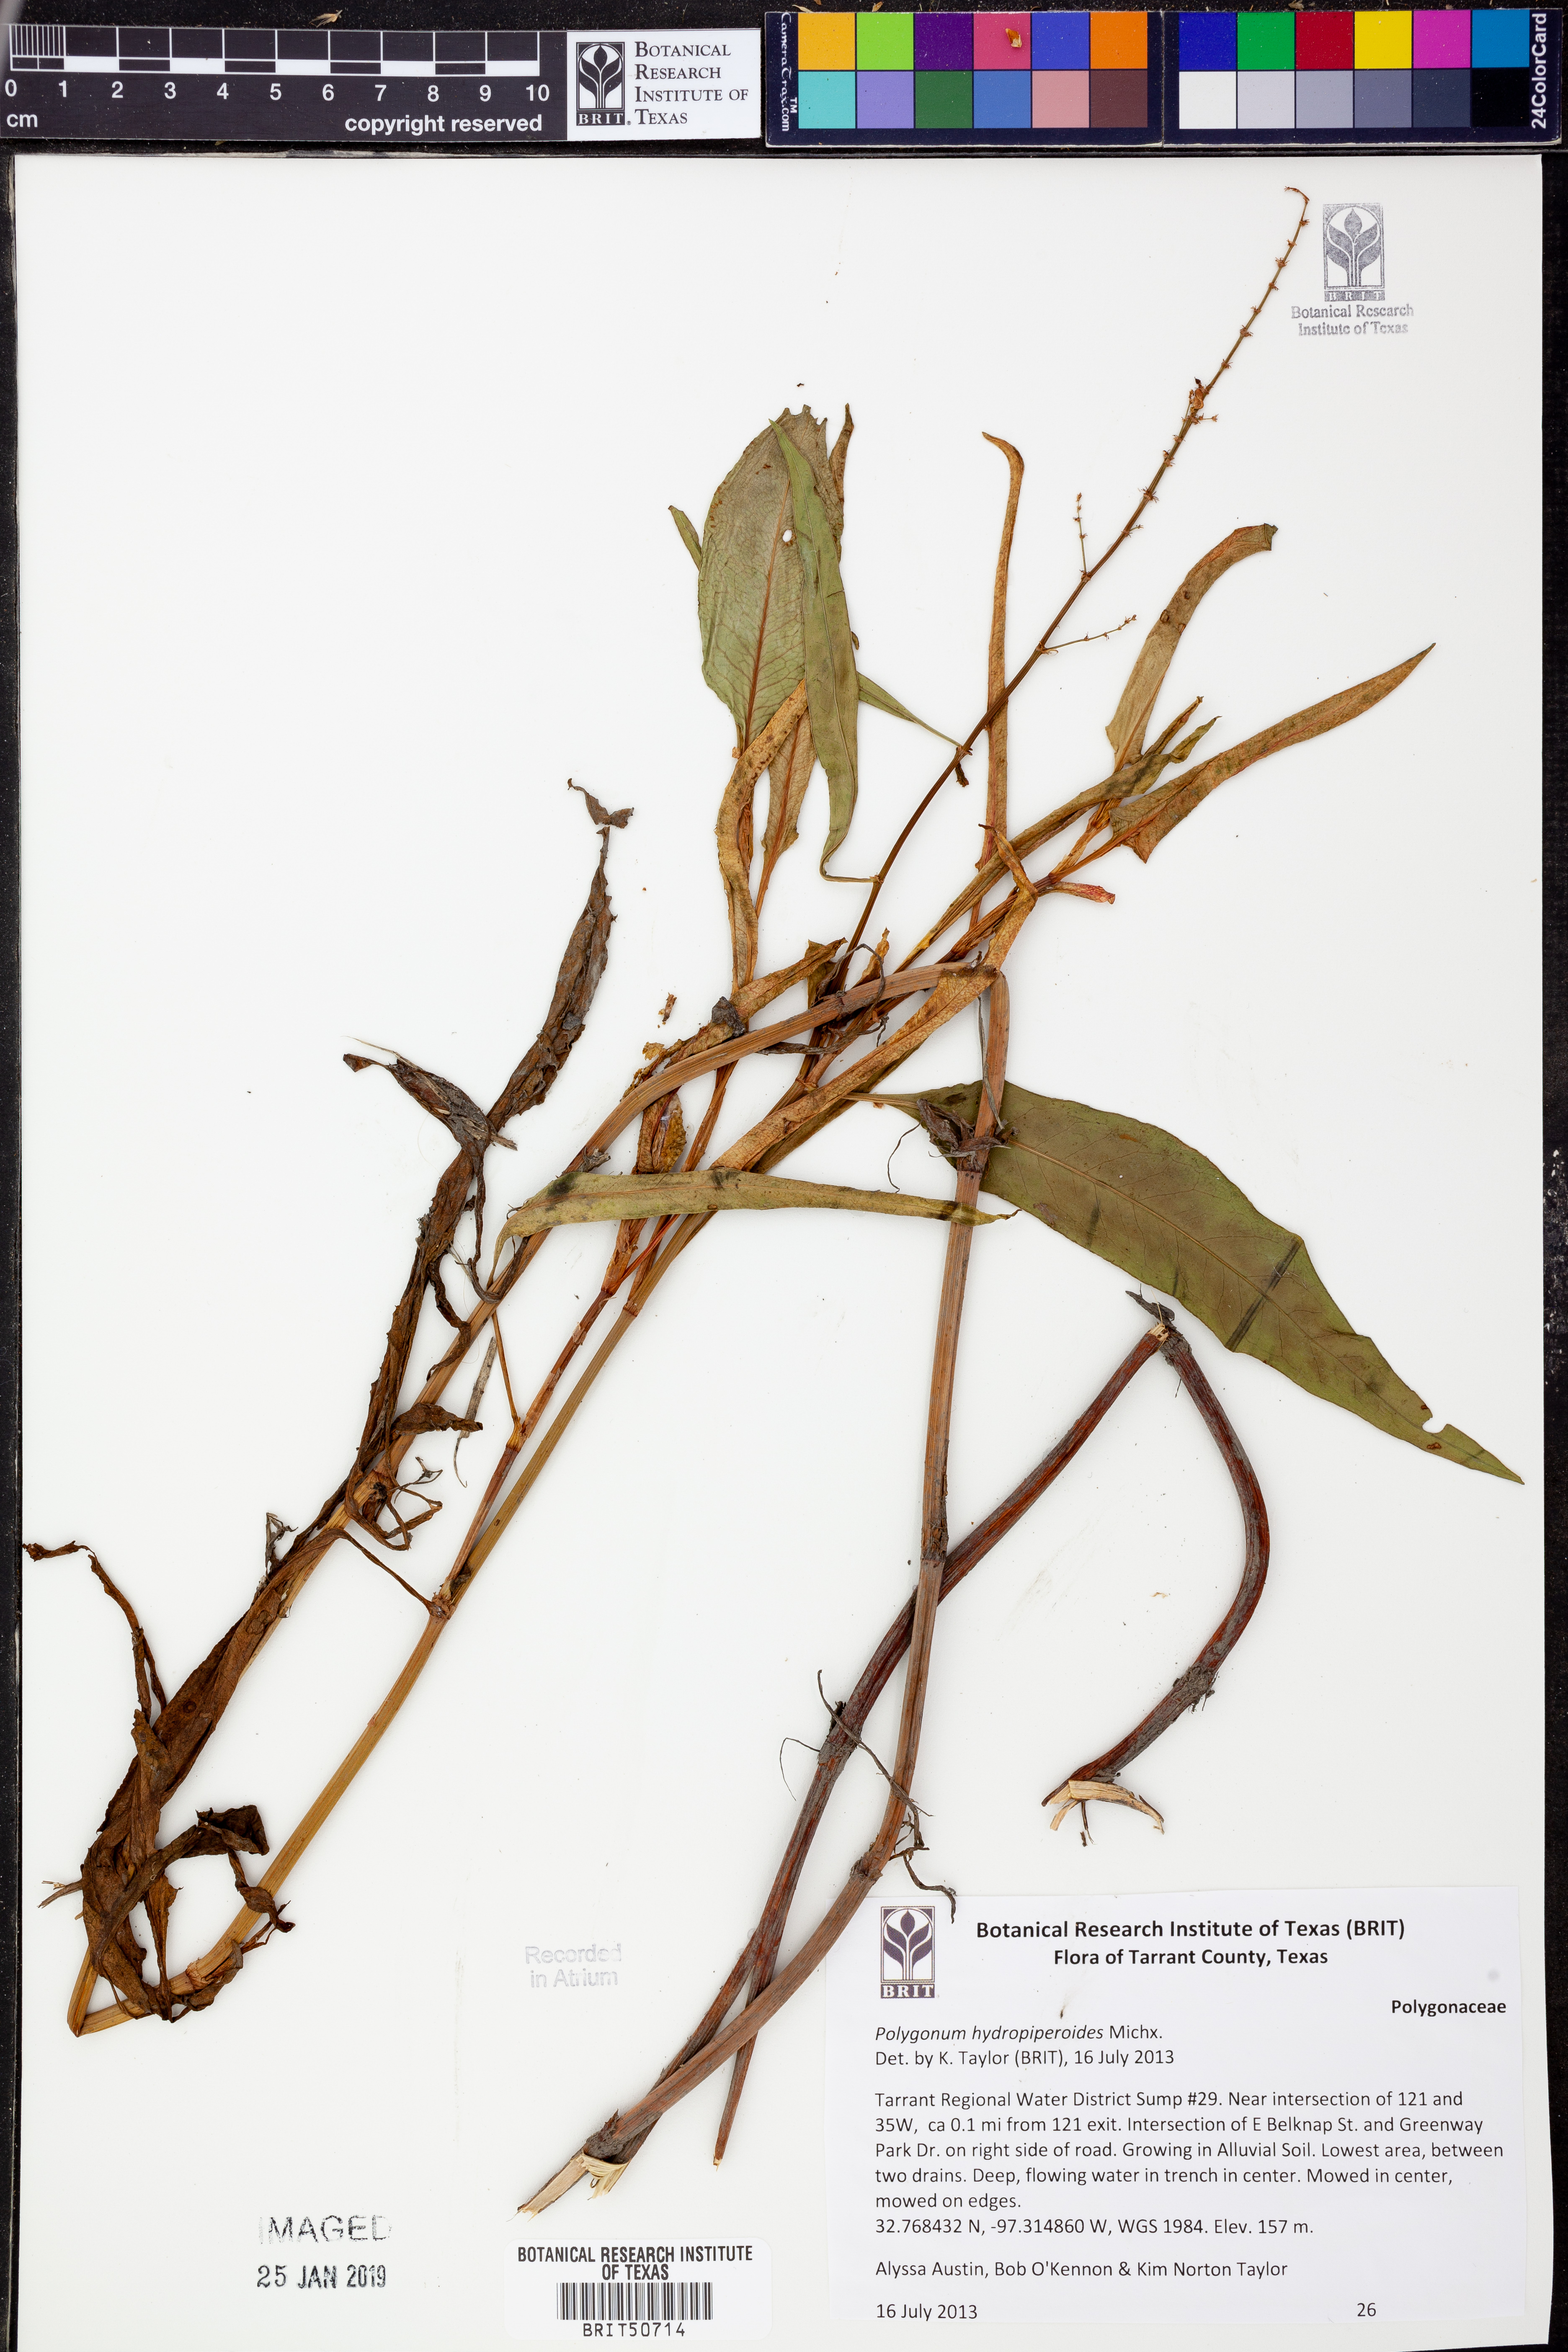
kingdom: Plantae
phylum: Tracheophyta
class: Magnoliopsida
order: Caryophyllales
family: Polygonaceae
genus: Persicaria
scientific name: Persicaria hydropiperoides
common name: Swamp smartweed
